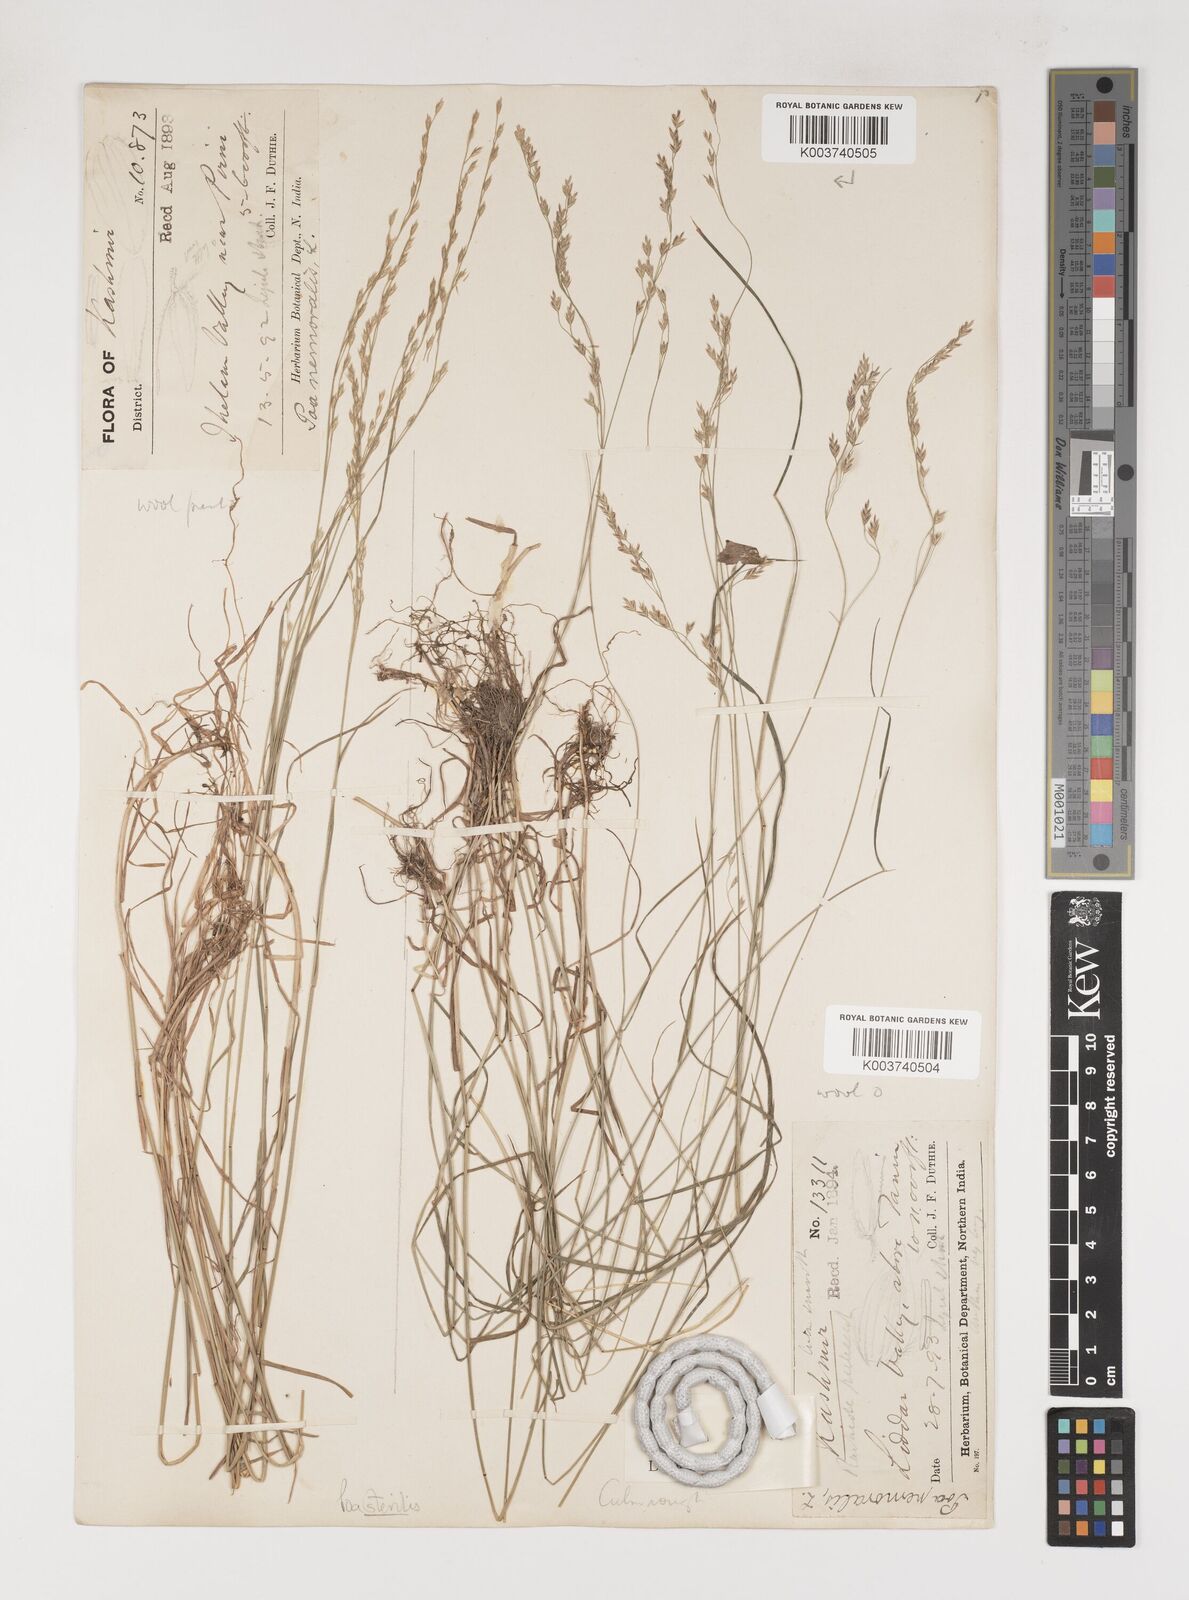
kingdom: Plantae
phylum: Tracheophyta
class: Liliopsida
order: Poales
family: Poaceae
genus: Poa
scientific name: Poa sterilis
